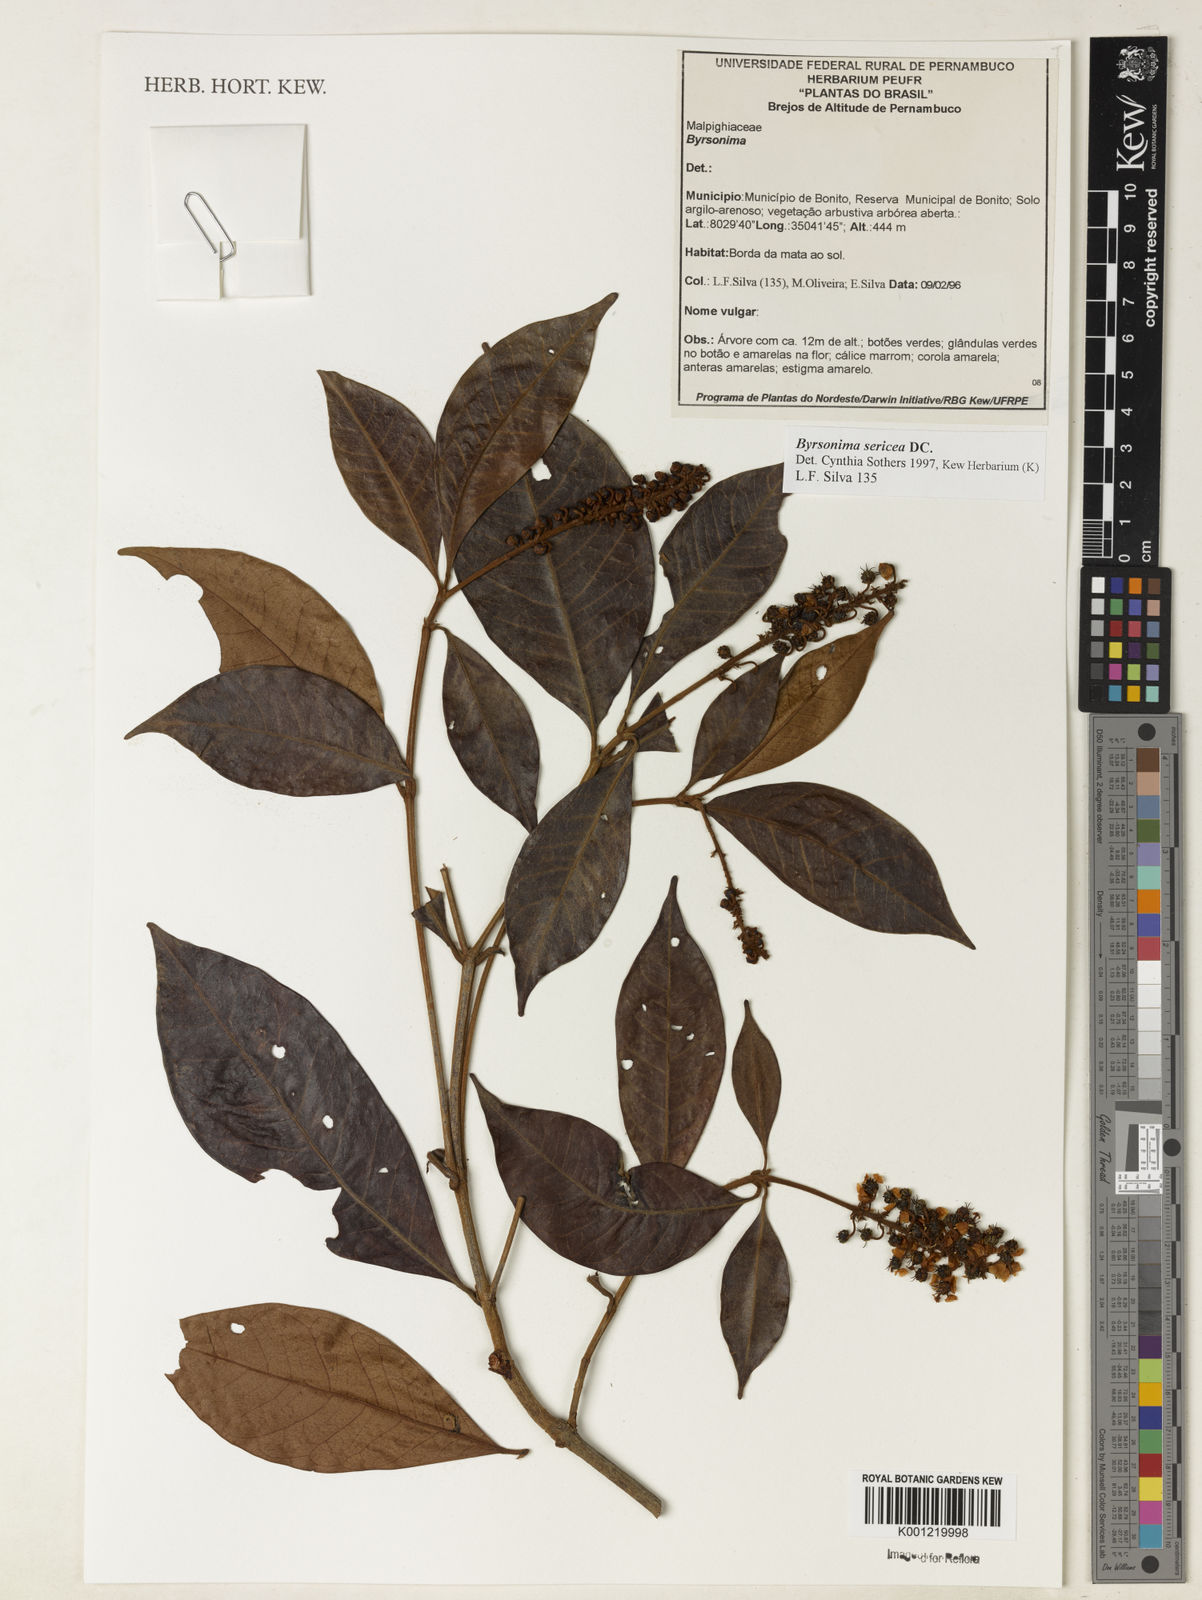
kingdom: Plantae
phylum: Tracheophyta
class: Magnoliopsida
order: Malpighiales
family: Malpighiaceae
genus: Byrsonima
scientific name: Byrsonima sericea
